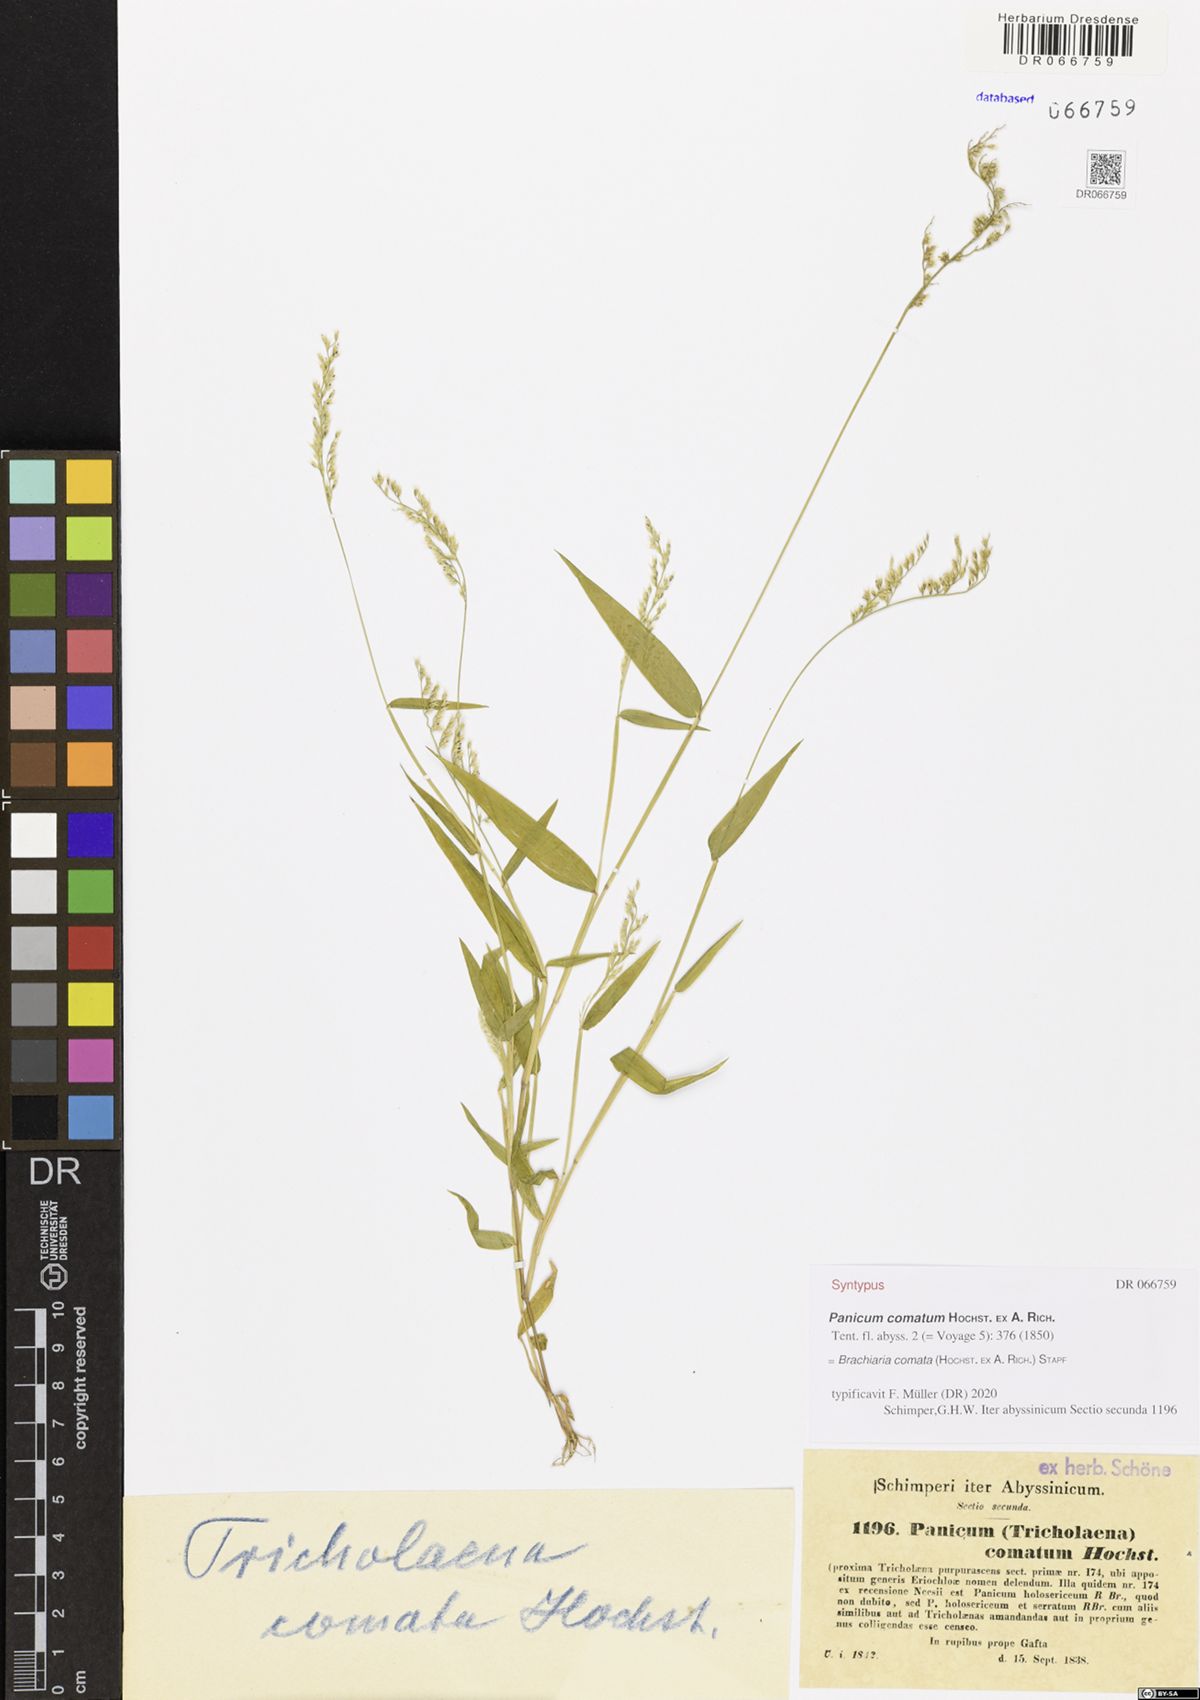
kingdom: Plantae
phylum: Tracheophyta
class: Liliopsida
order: Poales
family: Poaceae
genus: Urochloa
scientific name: Urochloa comata
